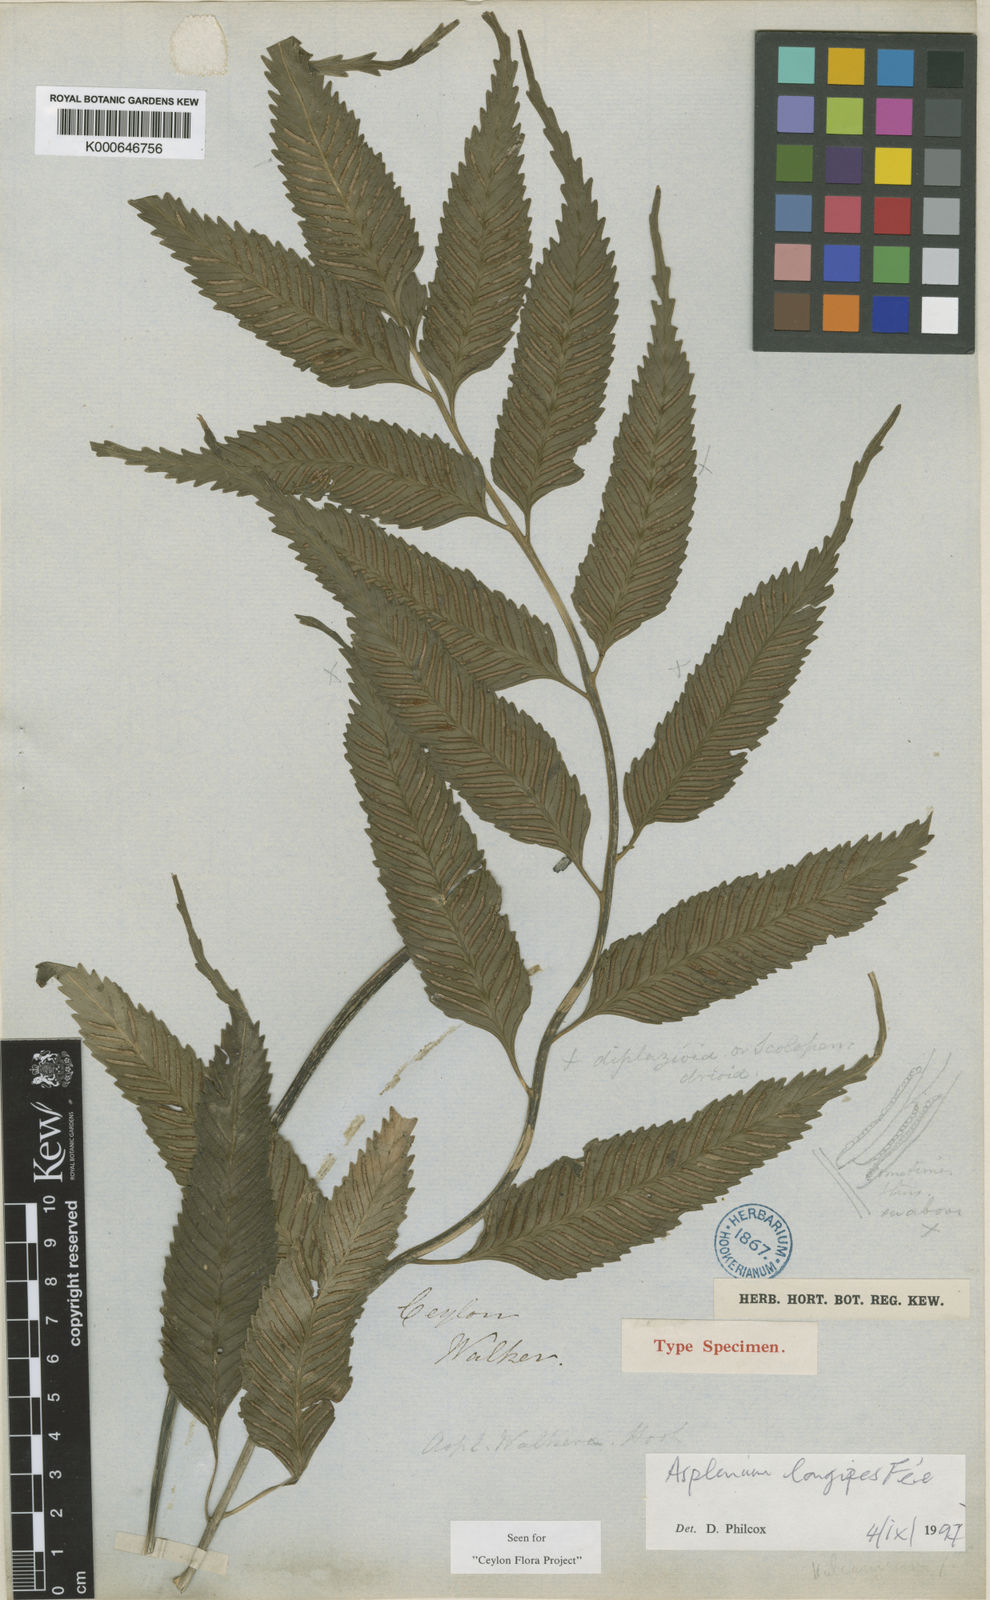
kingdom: Plantae
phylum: Tracheophyta
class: Polypodiopsida
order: Polypodiales
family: Aspleniaceae
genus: Asplenium
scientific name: Asplenium
